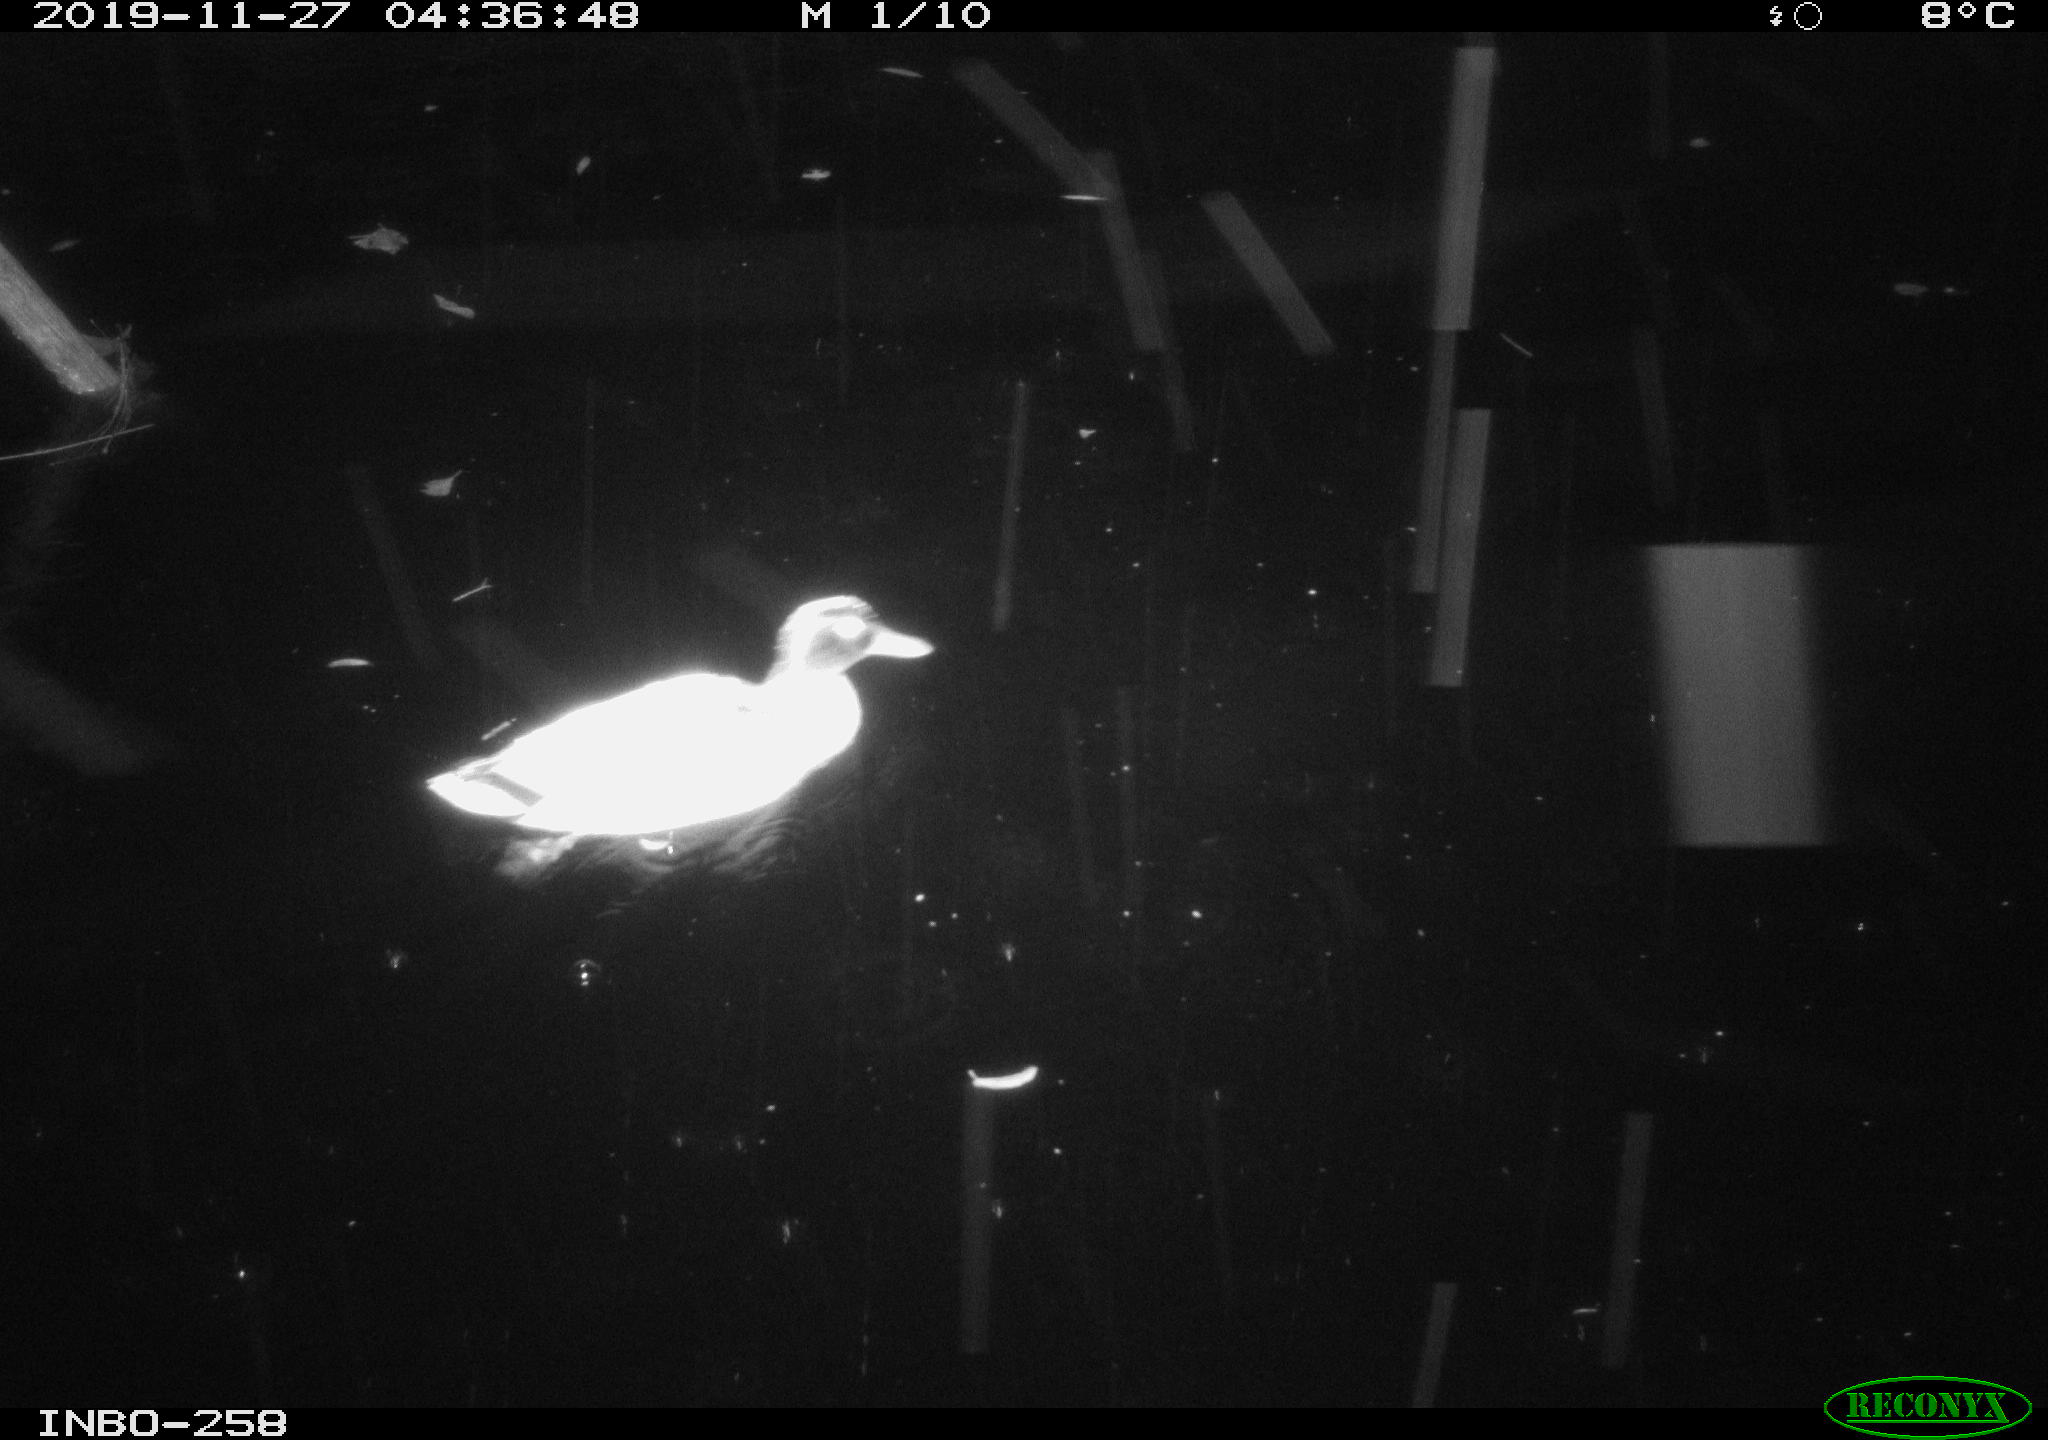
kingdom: Animalia
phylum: Chordata
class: Aves
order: Anseriformes
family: Anatidae
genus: Anas
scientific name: Anas platyrhynchos
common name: Mallard
